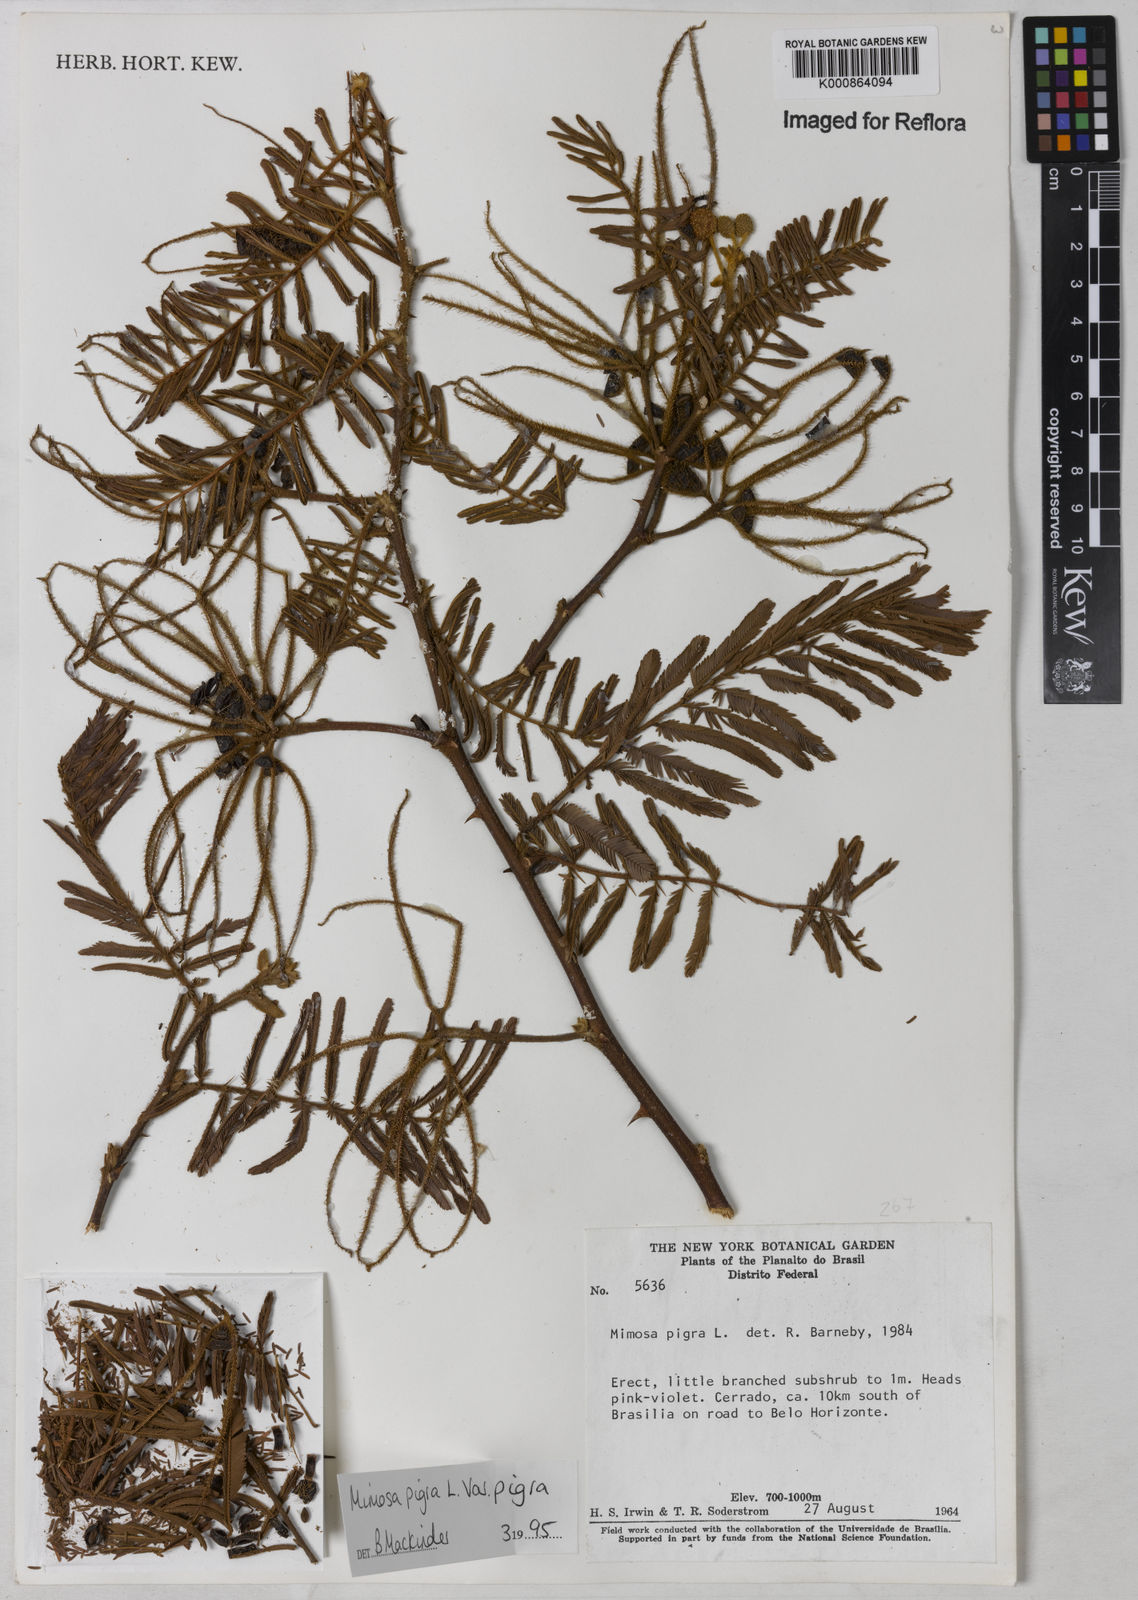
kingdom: Plantae
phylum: Tracheophyta
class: Magnoliopsida
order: Fabales
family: Fabaceae
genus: Mimosa
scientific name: Mimosa pigra
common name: Black mimosa
